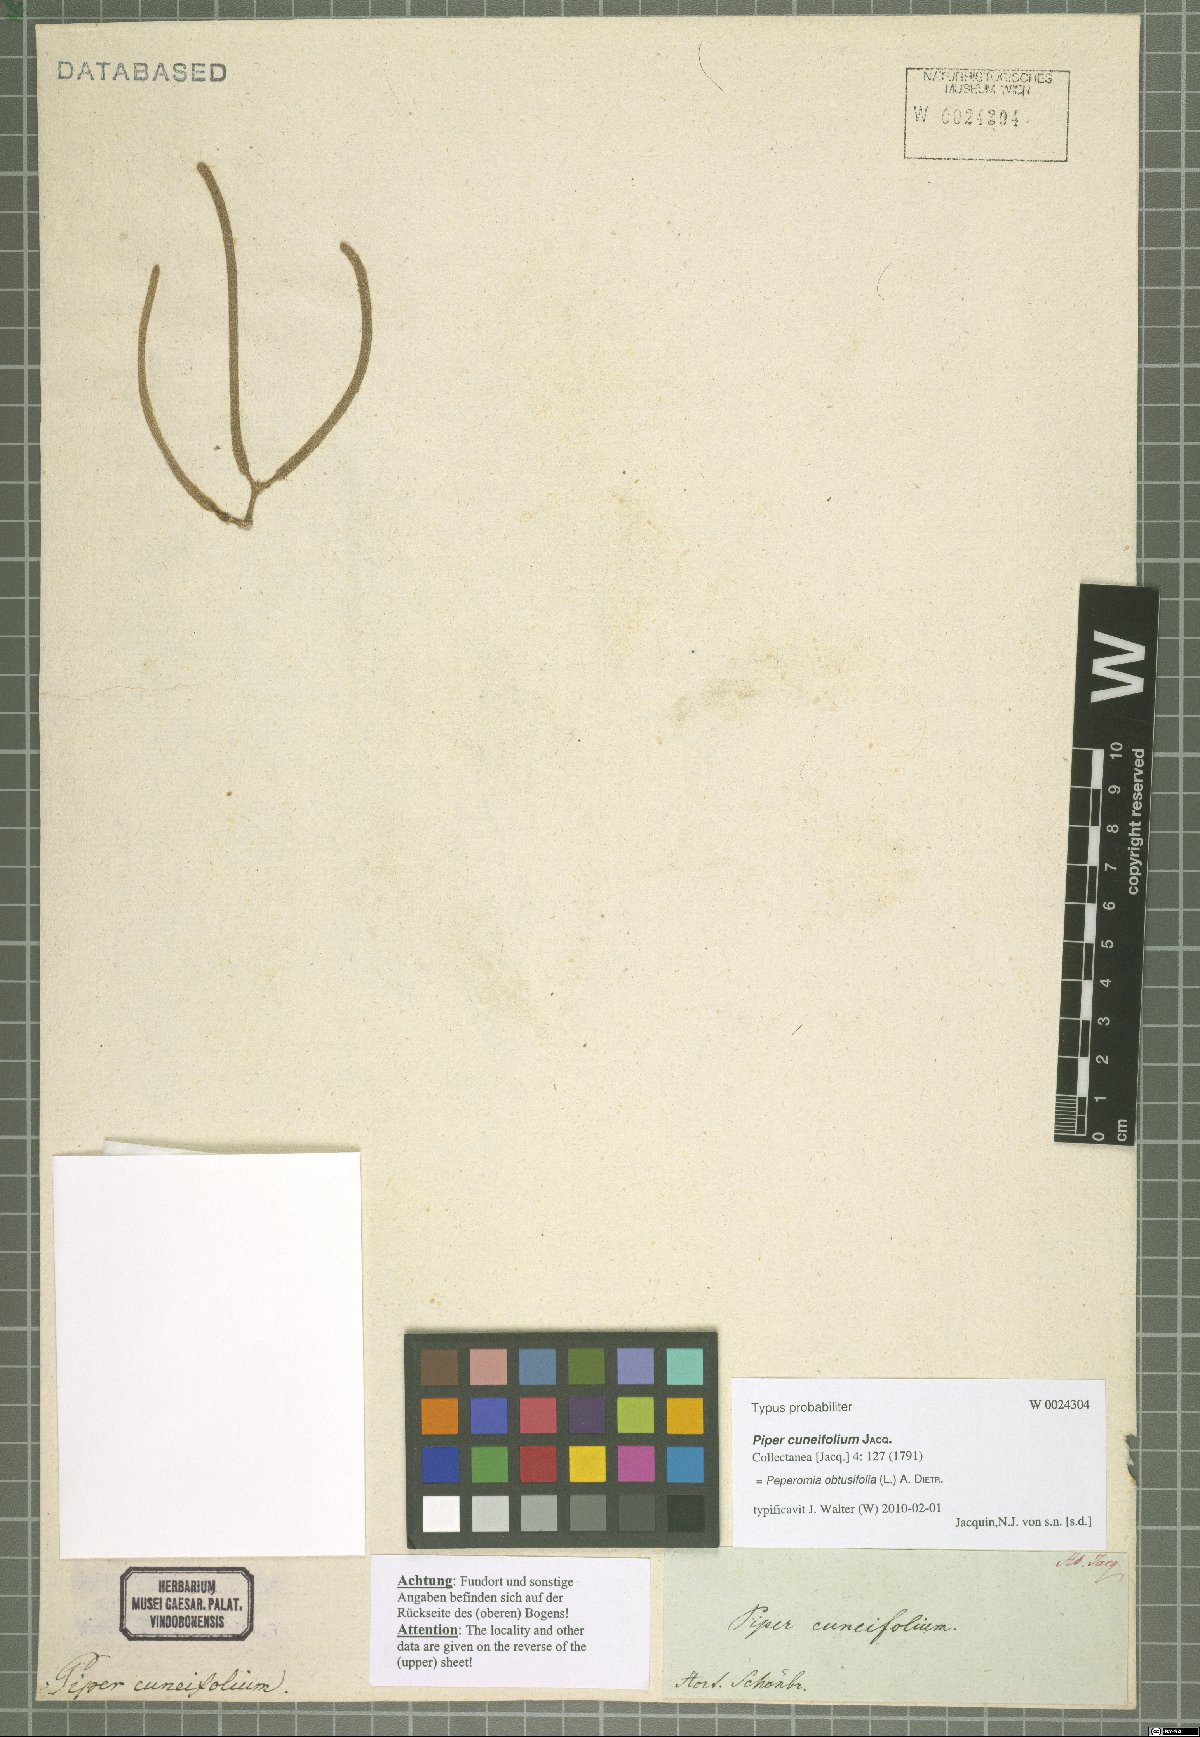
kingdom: Plantae
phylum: Tracheophyta
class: Magnoliopsida
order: Piperales
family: Piperaceae
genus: Peperomia
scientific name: Peperomia obtusifolia
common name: Baby rubberplant
